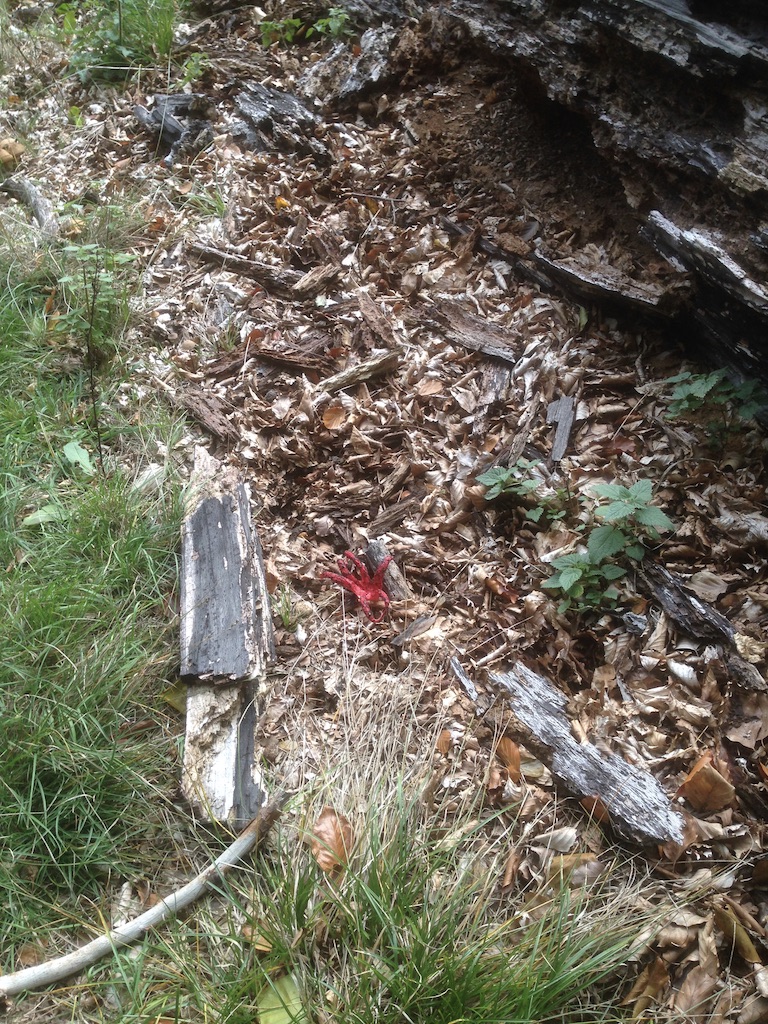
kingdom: Fungi
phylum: Basidiomycota
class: Agaricomycetes
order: Phallales
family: Phallaceae
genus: Clathrus
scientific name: Clathrus archeri
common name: blækspruttesvamp
